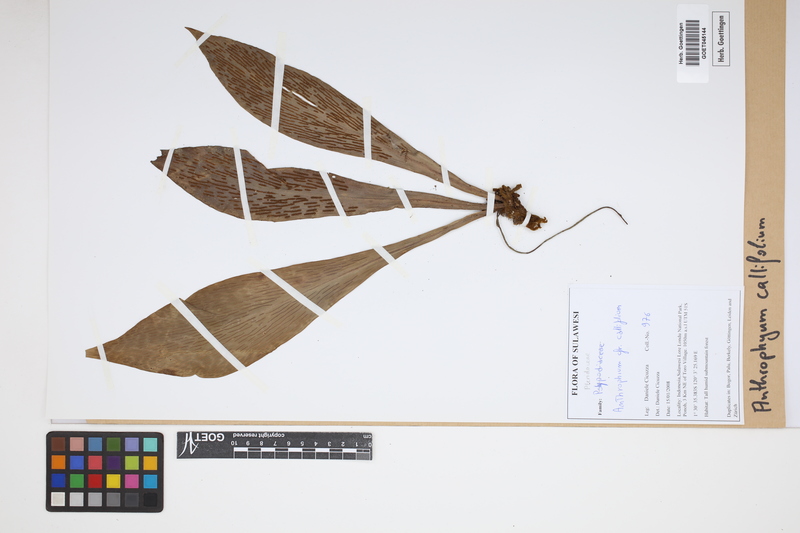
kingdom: Plantae
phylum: Tracheophyta
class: Polypodiopsida
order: Polypodiales
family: Pteridaceae
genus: Antrophyum
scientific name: Antrophyum callifolium
